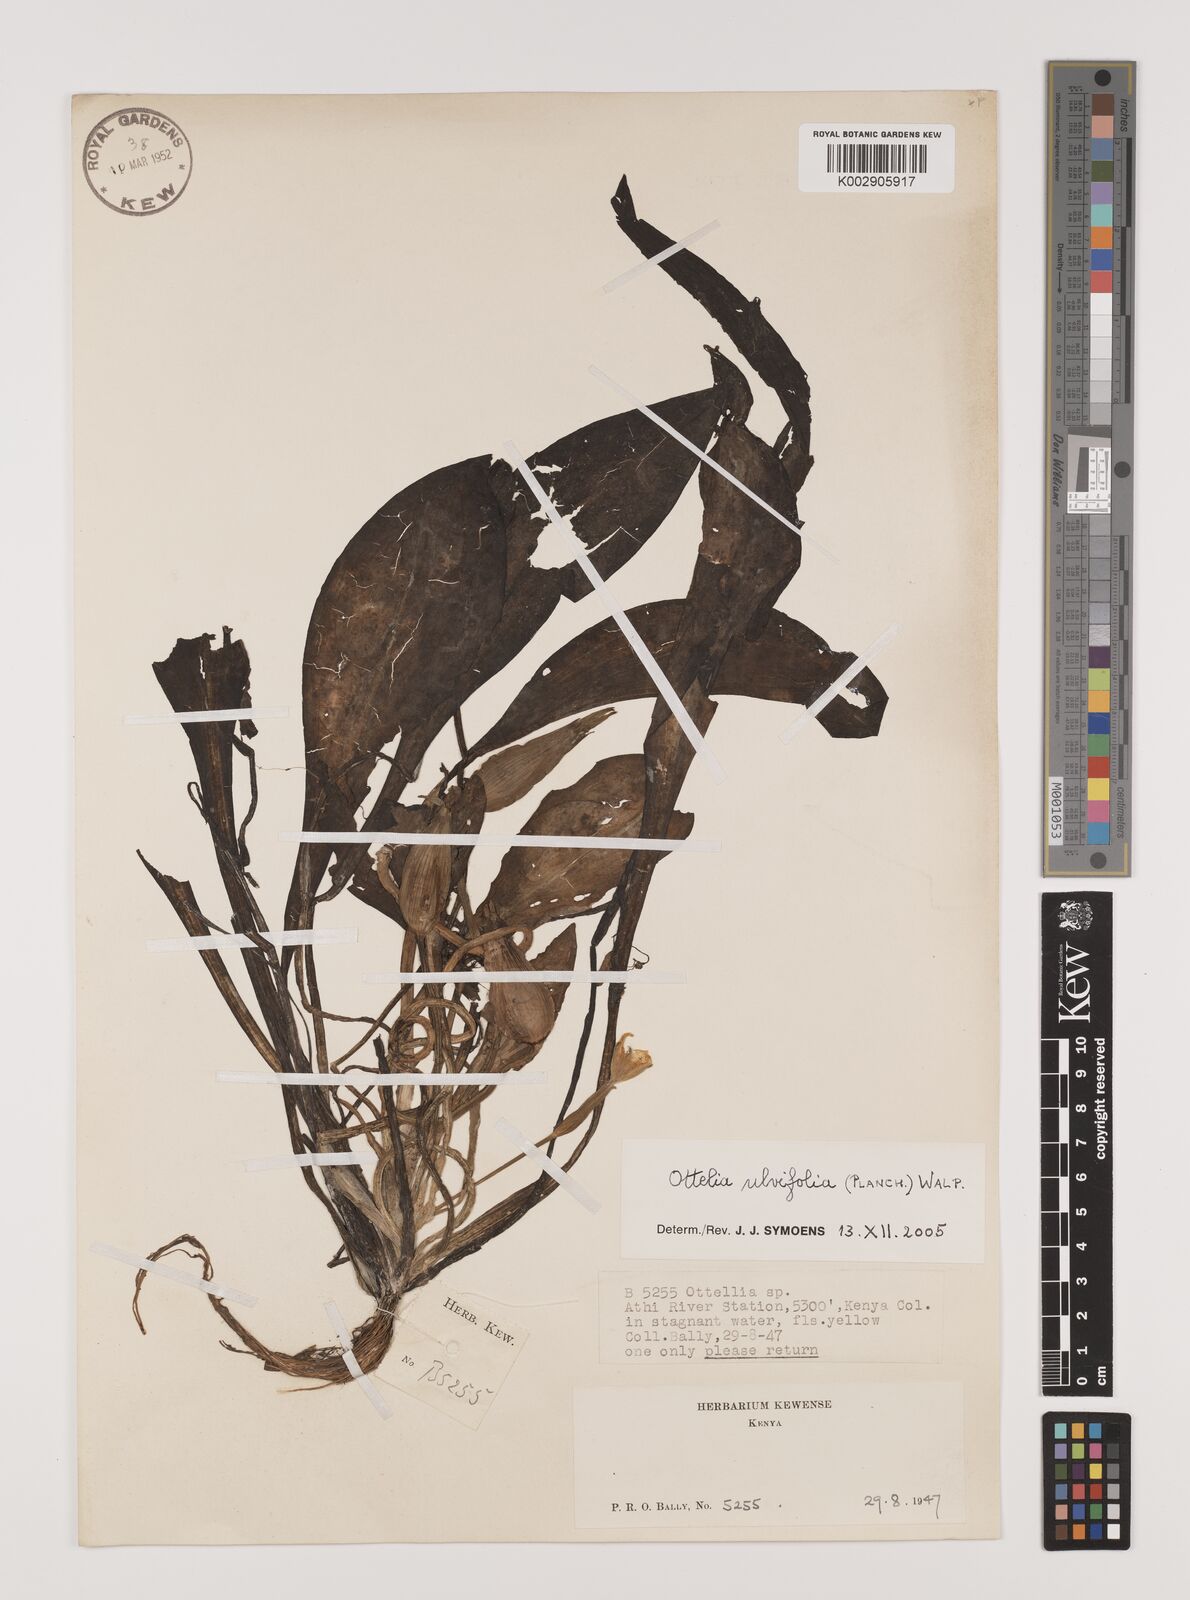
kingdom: Plantae
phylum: Tracheophyta
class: Liliopsida
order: Alismatales
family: Hydrocharitaceae
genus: Ottelia
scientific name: Ottelia ulvifolia
